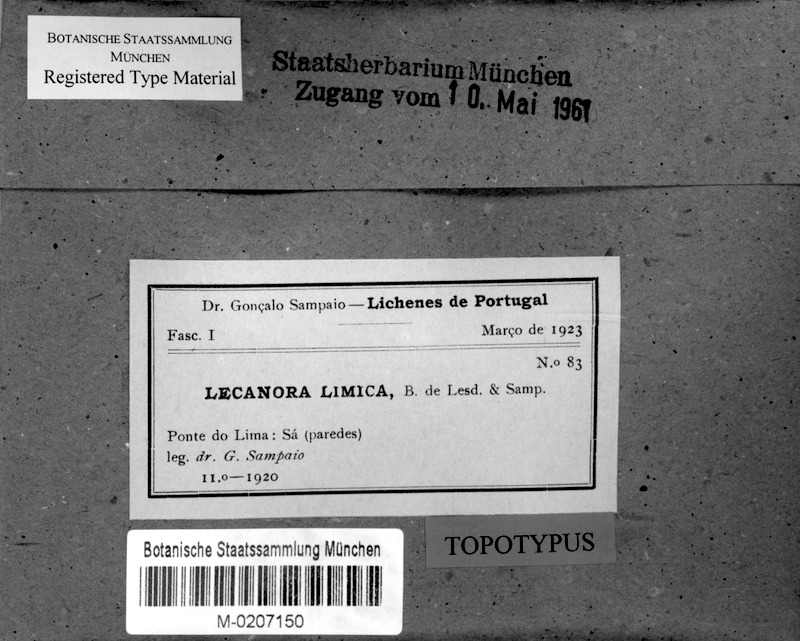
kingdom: Fungi
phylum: Ascomycota
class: Lecanoromycetes
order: Lecanorales
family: Lecanoraceae
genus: Lecanora
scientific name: Lecanora livida
